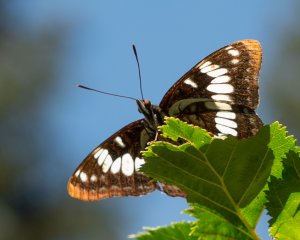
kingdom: Animalia
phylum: Arthropoda
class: Insecta
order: Lepidoptera
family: Nymphalidae
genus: Limenitis
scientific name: Limenitis lorquini
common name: Lorquin's Admiral
